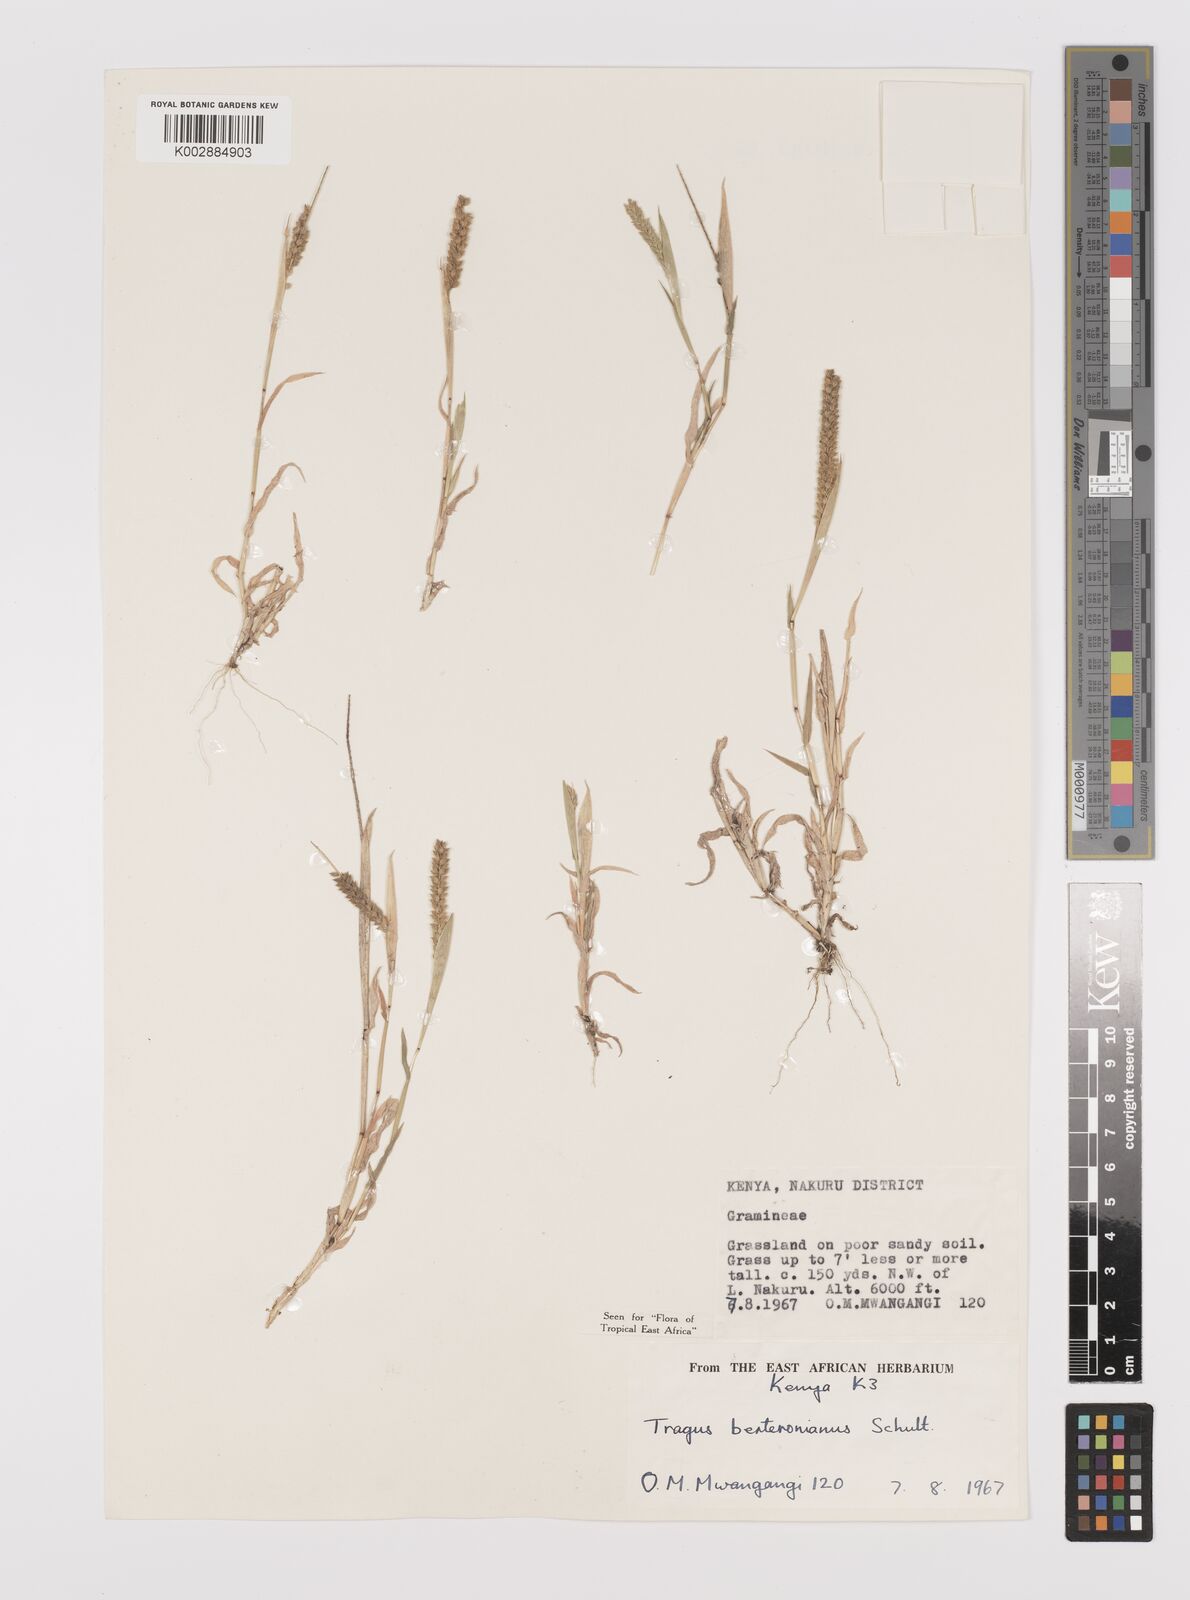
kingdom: Plantae
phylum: Tracheophyta
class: Liliopsida
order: Poales
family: Poaceae
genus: Tragus
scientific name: Tragus berteronianus
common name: African bur-grass
